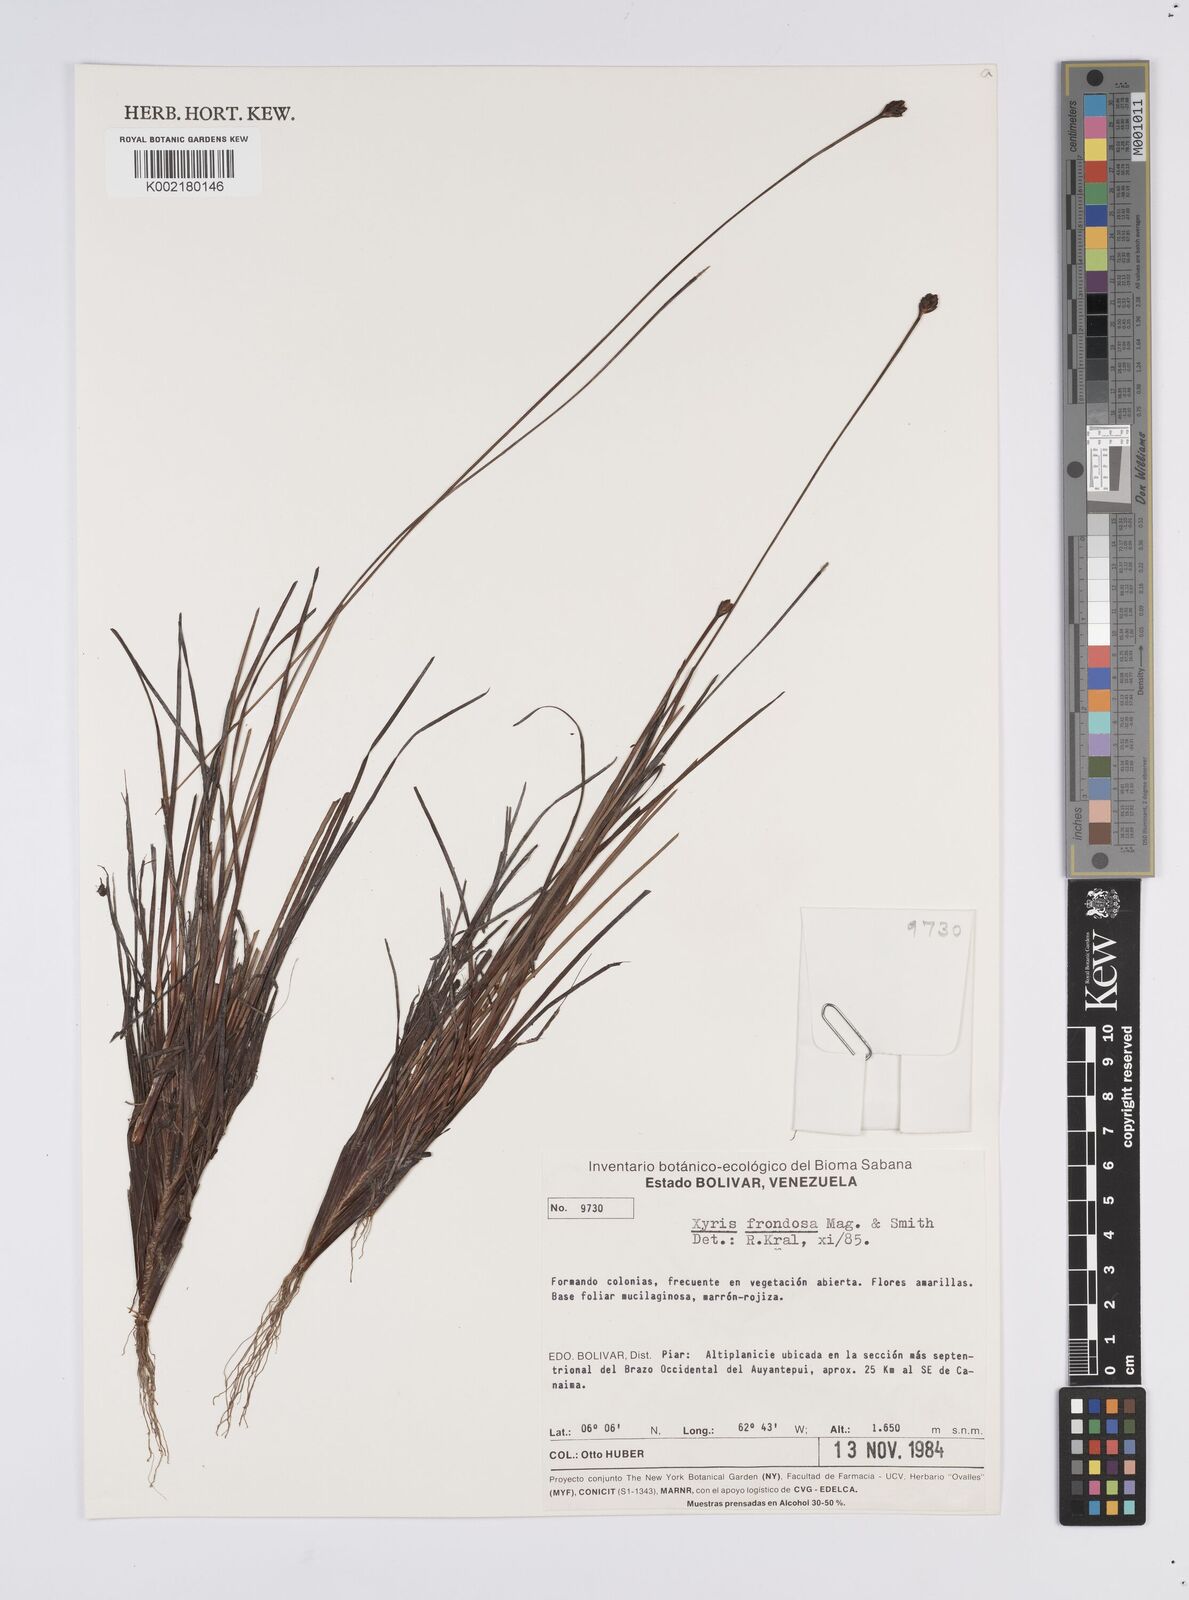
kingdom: Plantae
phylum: Tracheophyta
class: Liliopsida
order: Poales
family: Xyridaceae
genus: Xyris
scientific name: Xyris frondosa
